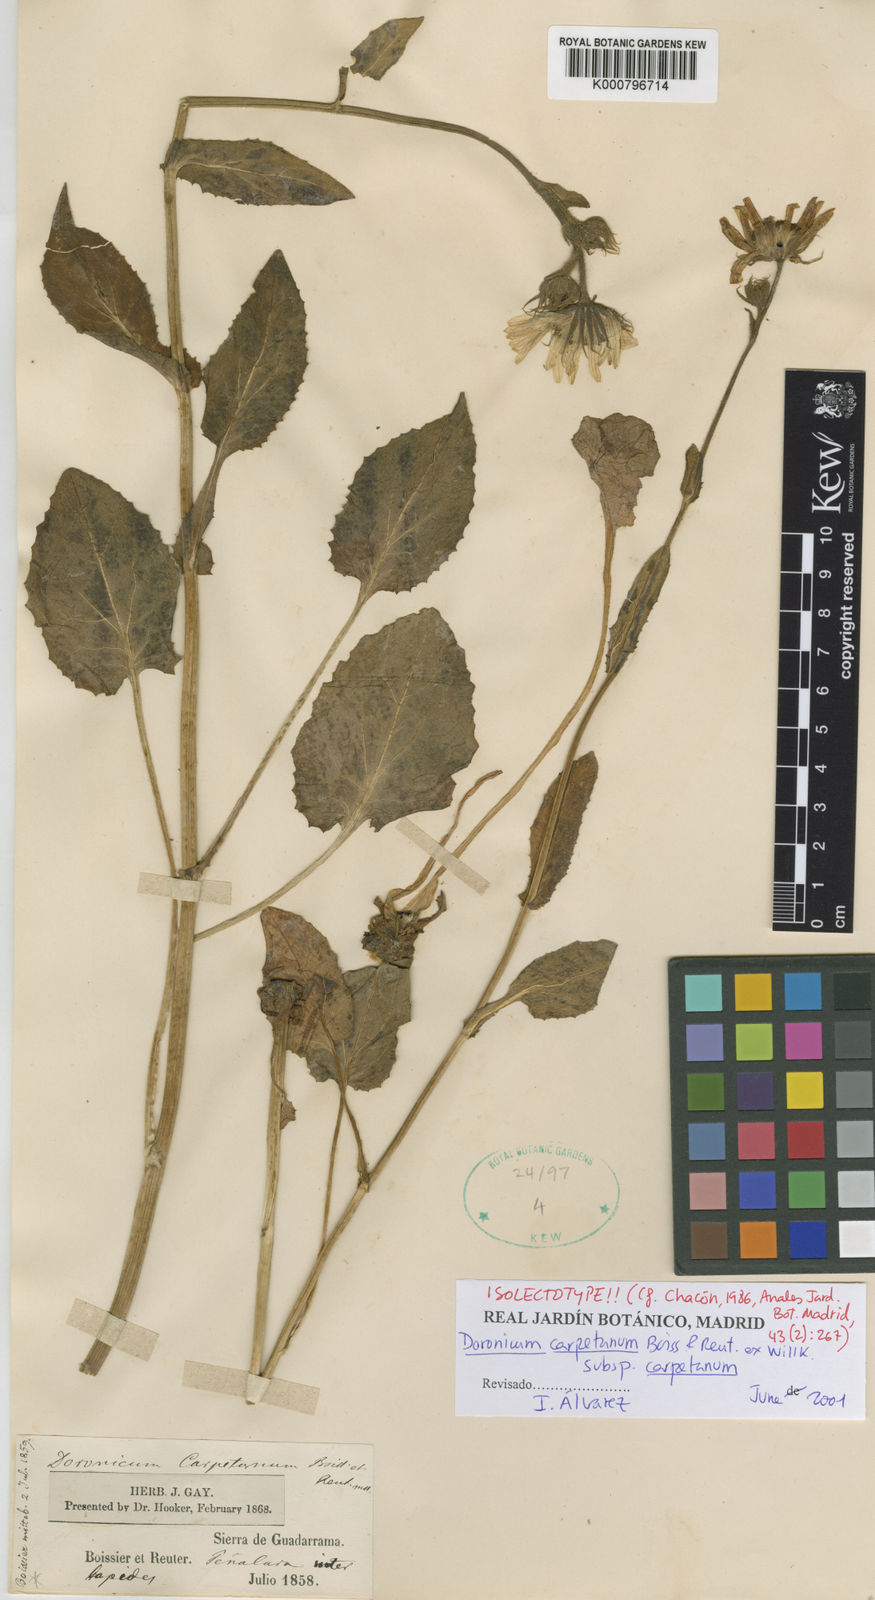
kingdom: Plantae
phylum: Tracheophyta
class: Magnoliopsida
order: Asterales
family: Asteraceae
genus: Doronicum
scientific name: Doronicum carpetanum
